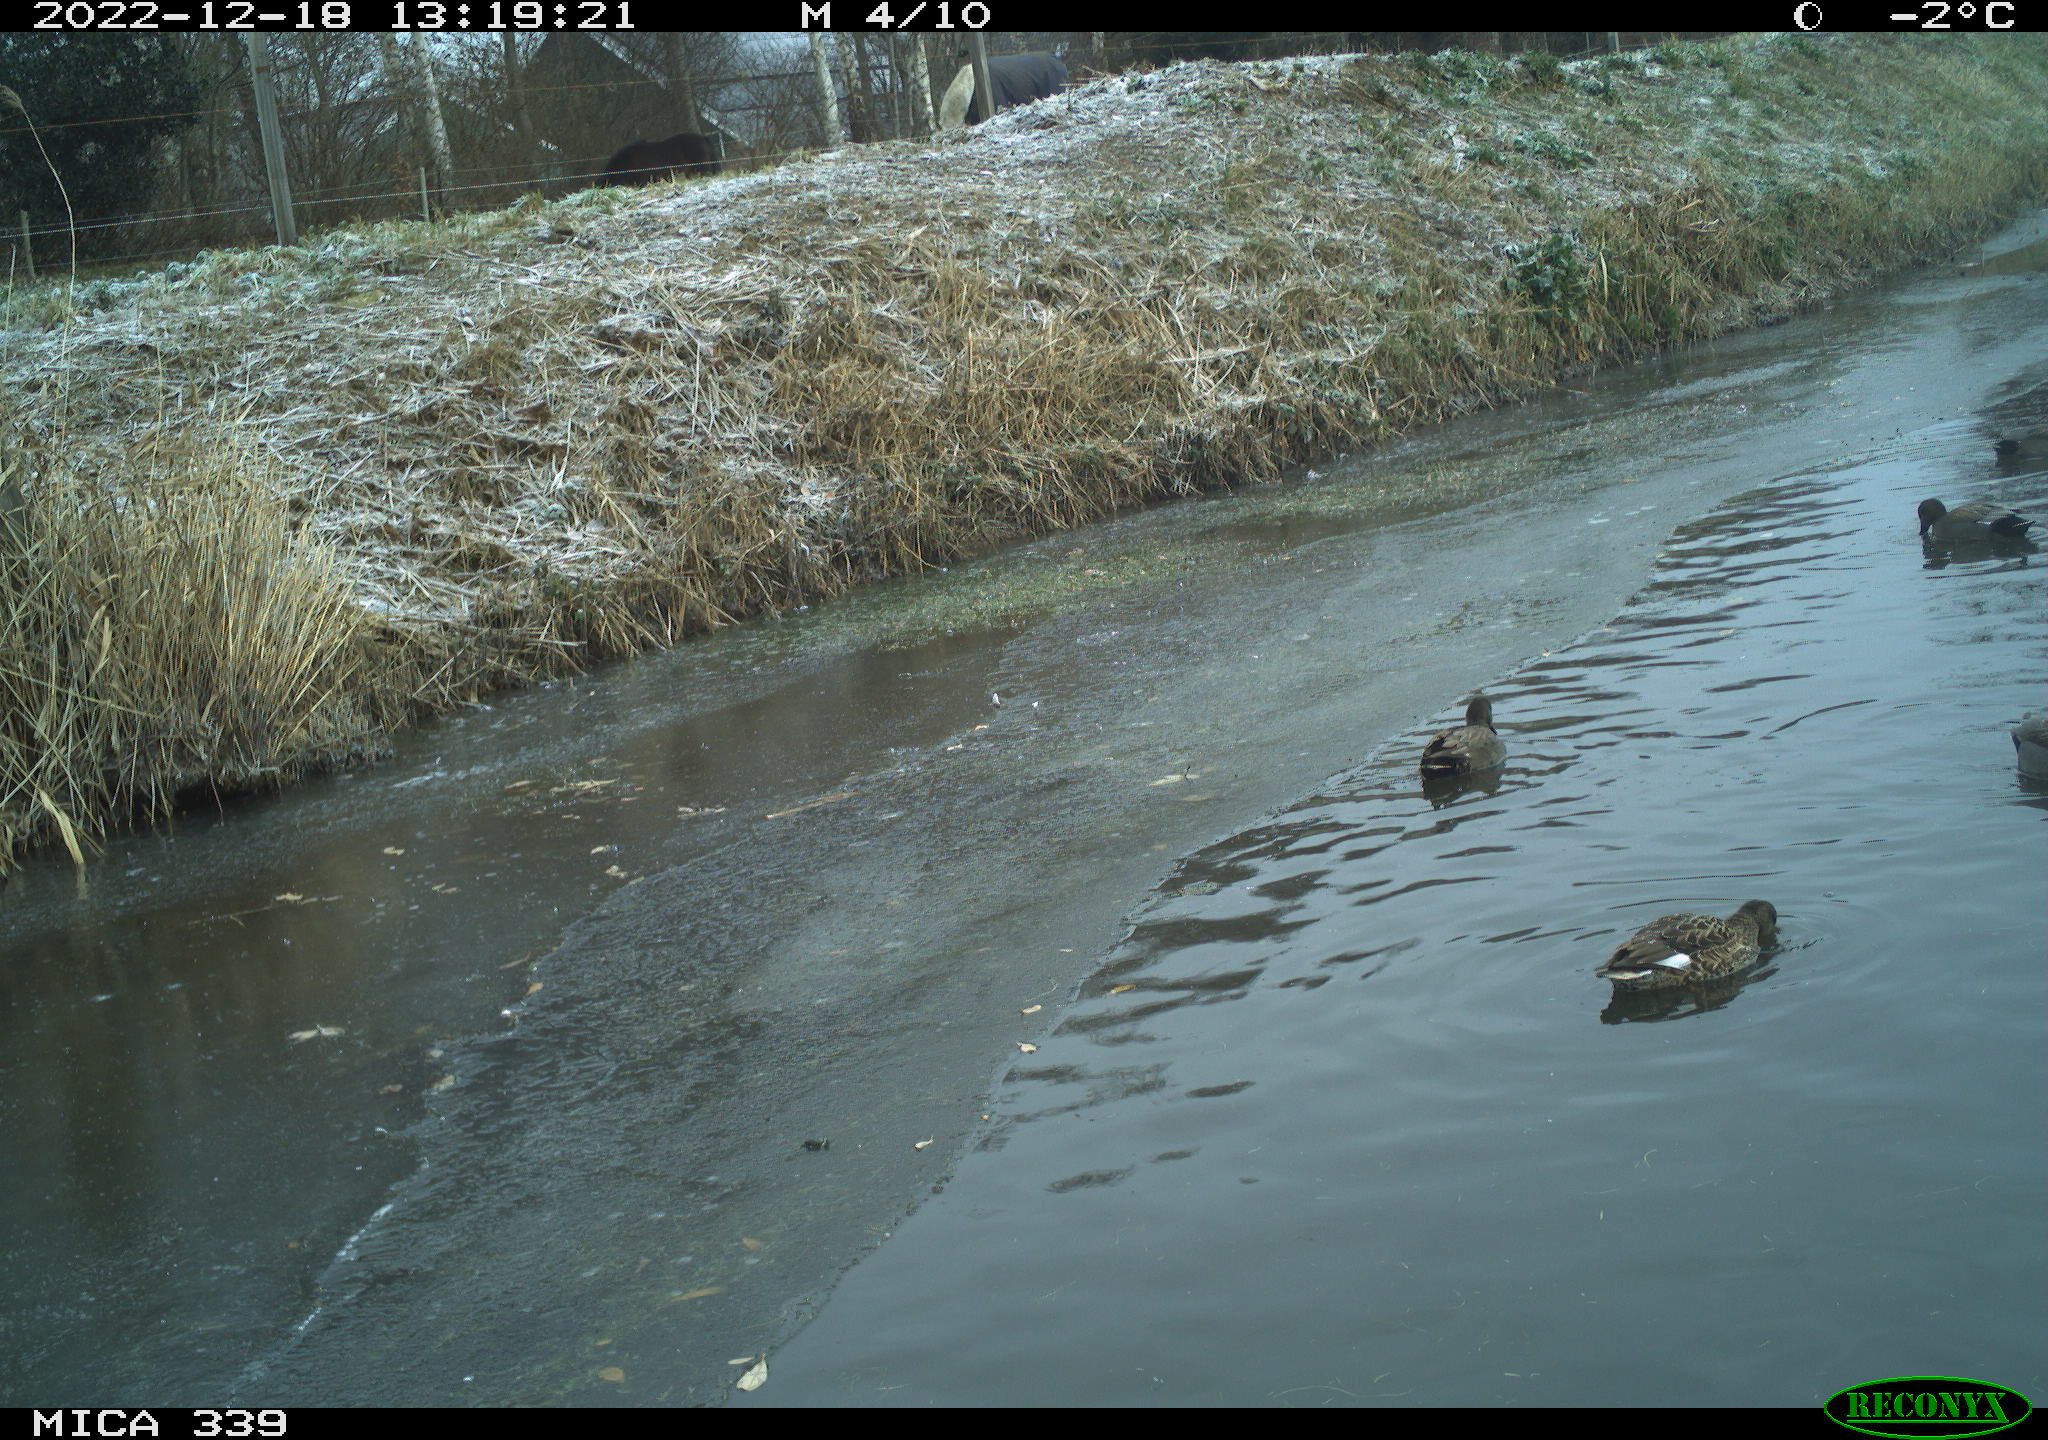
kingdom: Animalia
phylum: Chordata
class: Aves
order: Anseriformes
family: Anatidae
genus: Anas
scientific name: Anas
